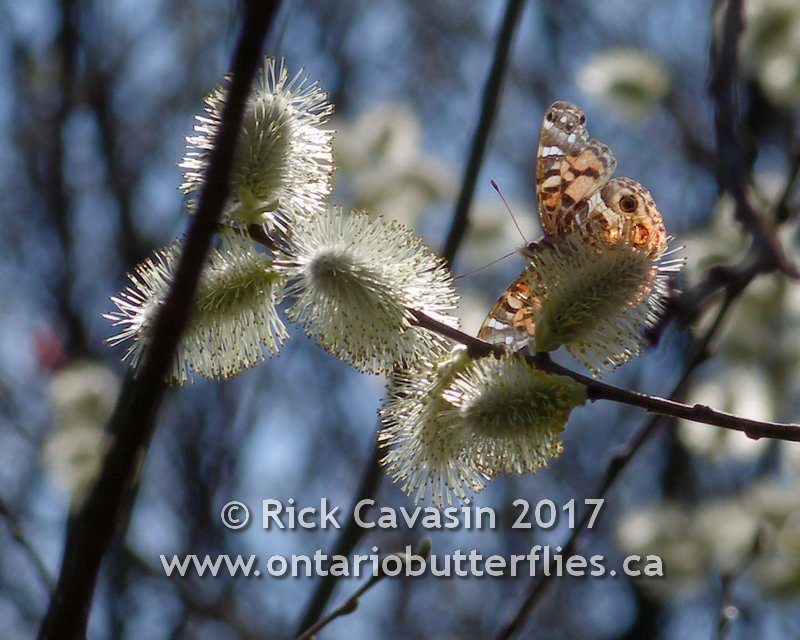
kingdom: Animalia
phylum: Arthropoda
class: Insecta
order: Lepidoptera
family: Nymphalidae
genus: Vanessa
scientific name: Vanessa virginiensis
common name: American Lady
